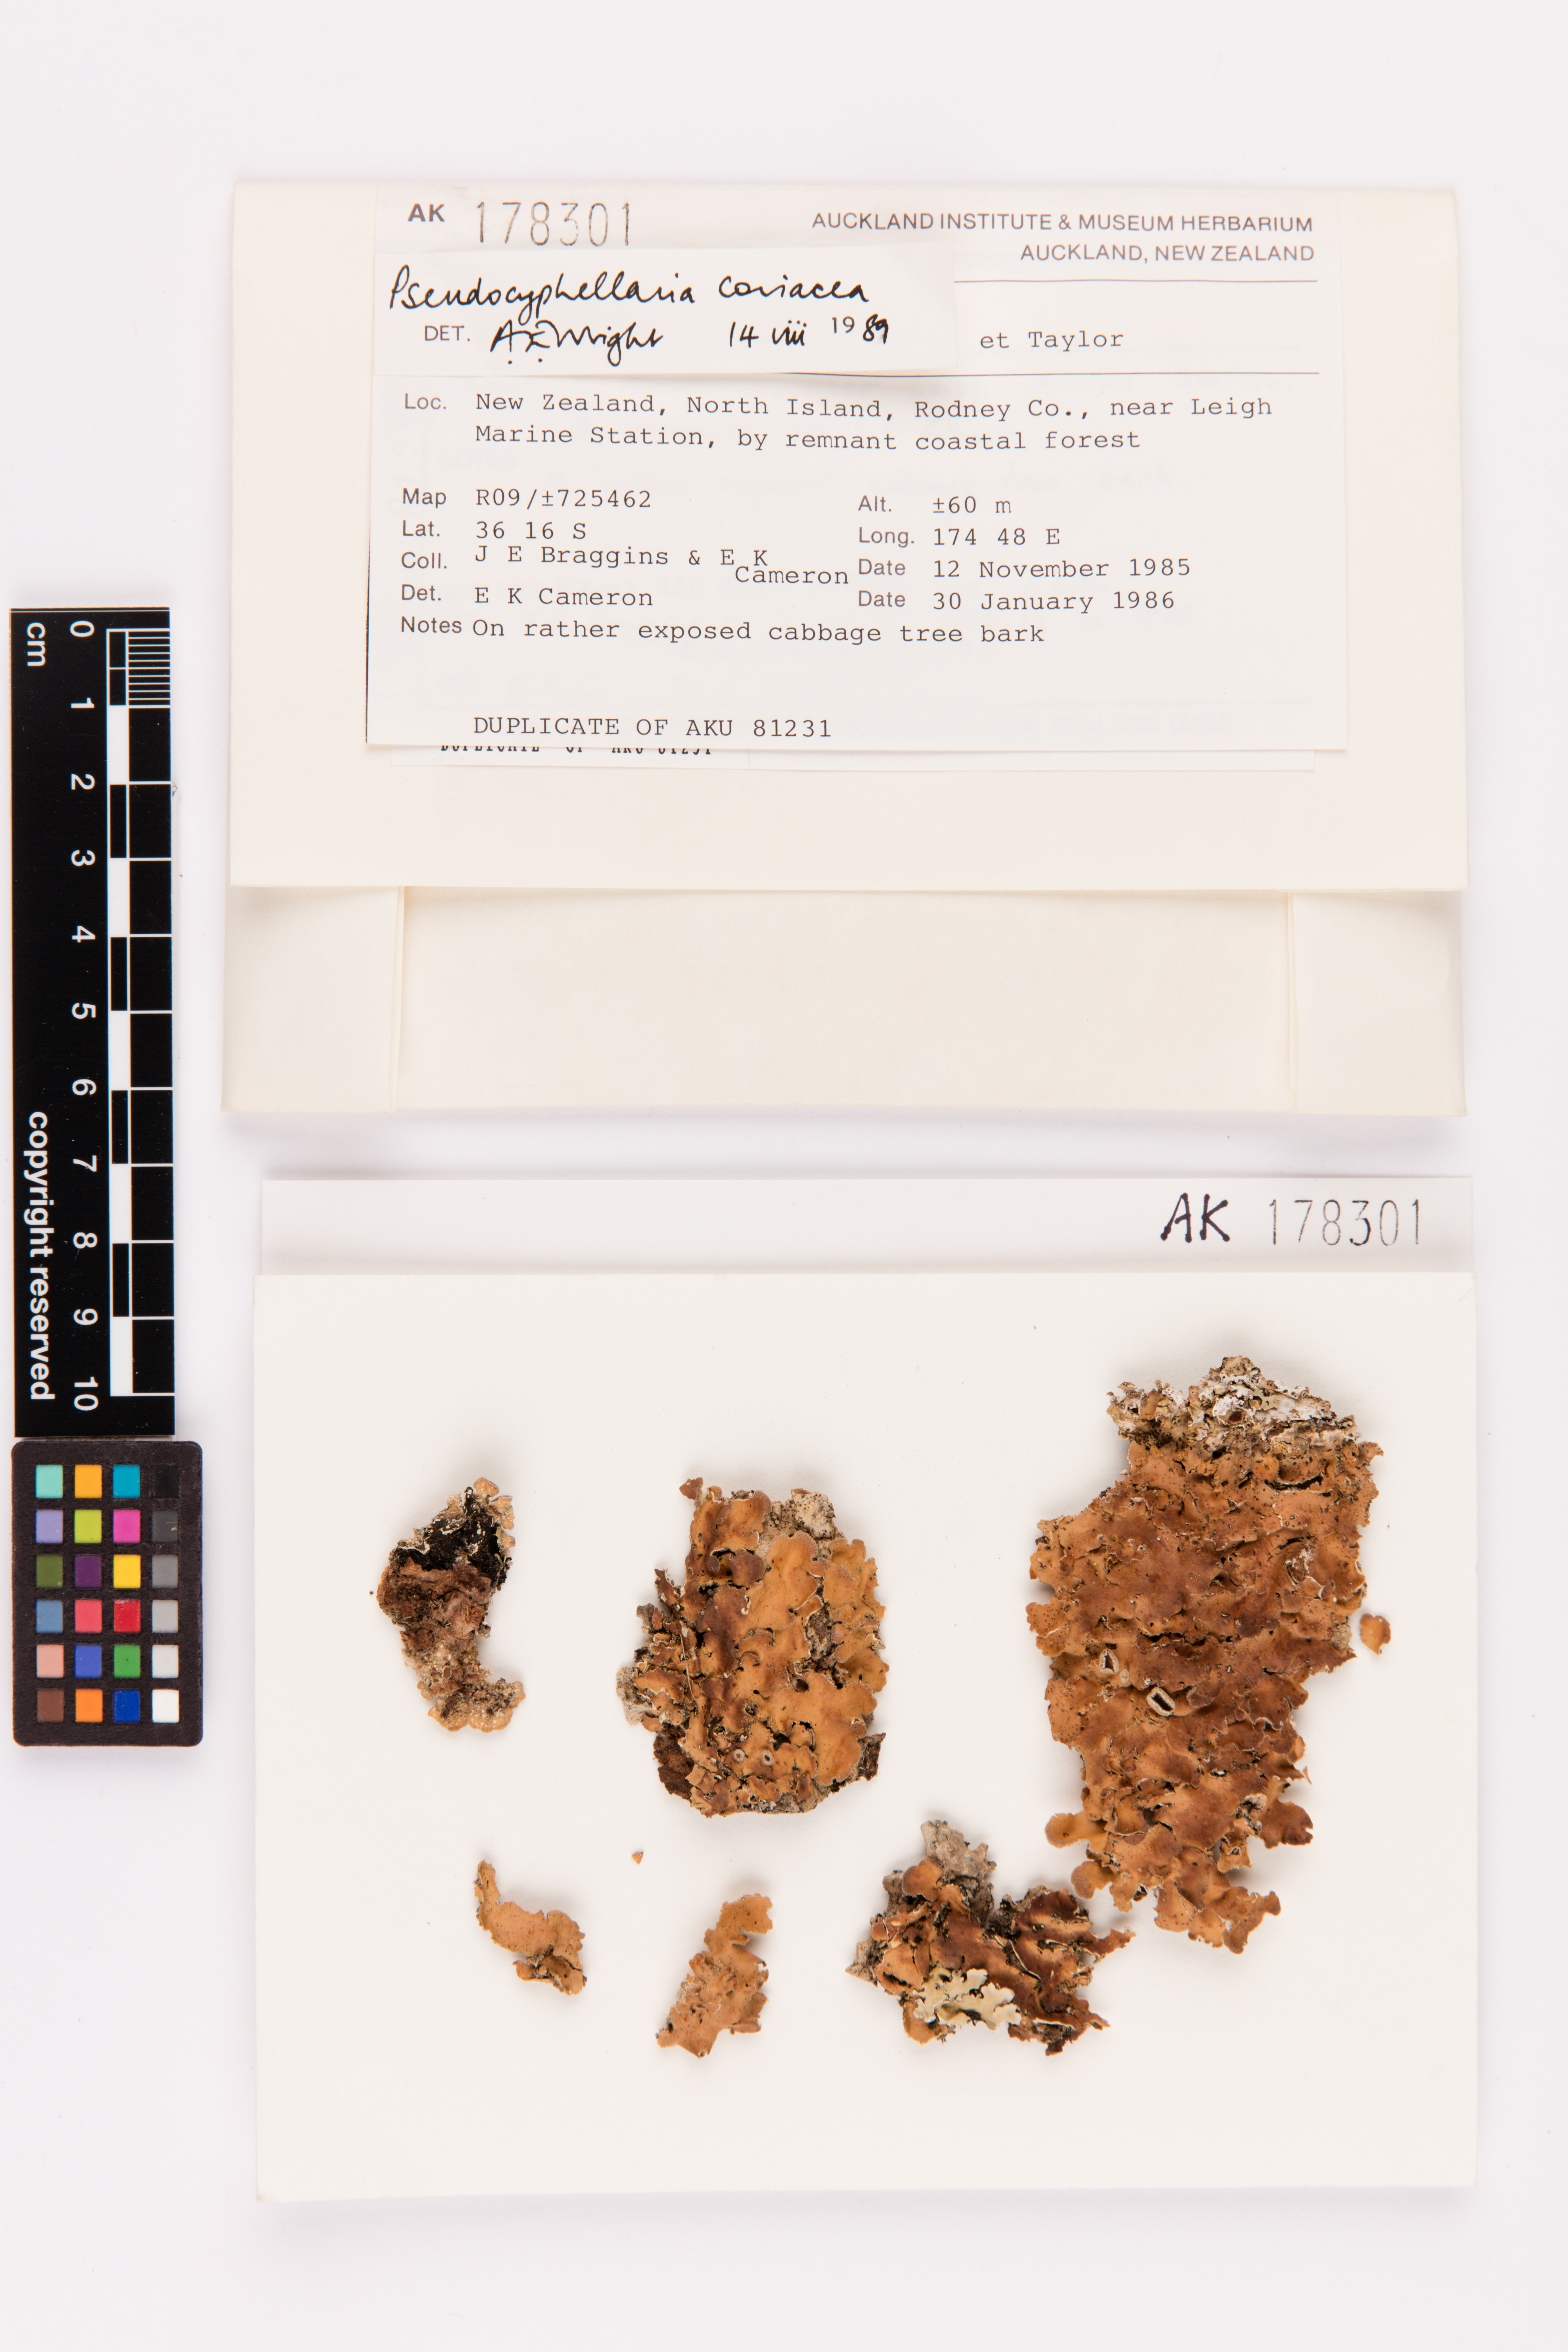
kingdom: Fungi
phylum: Ascomycota
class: Lecanoromycetes
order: Peltigerales
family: Lobariaceae
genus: Pseudocyphellaria
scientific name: Pseudocyphellaria coriacea
